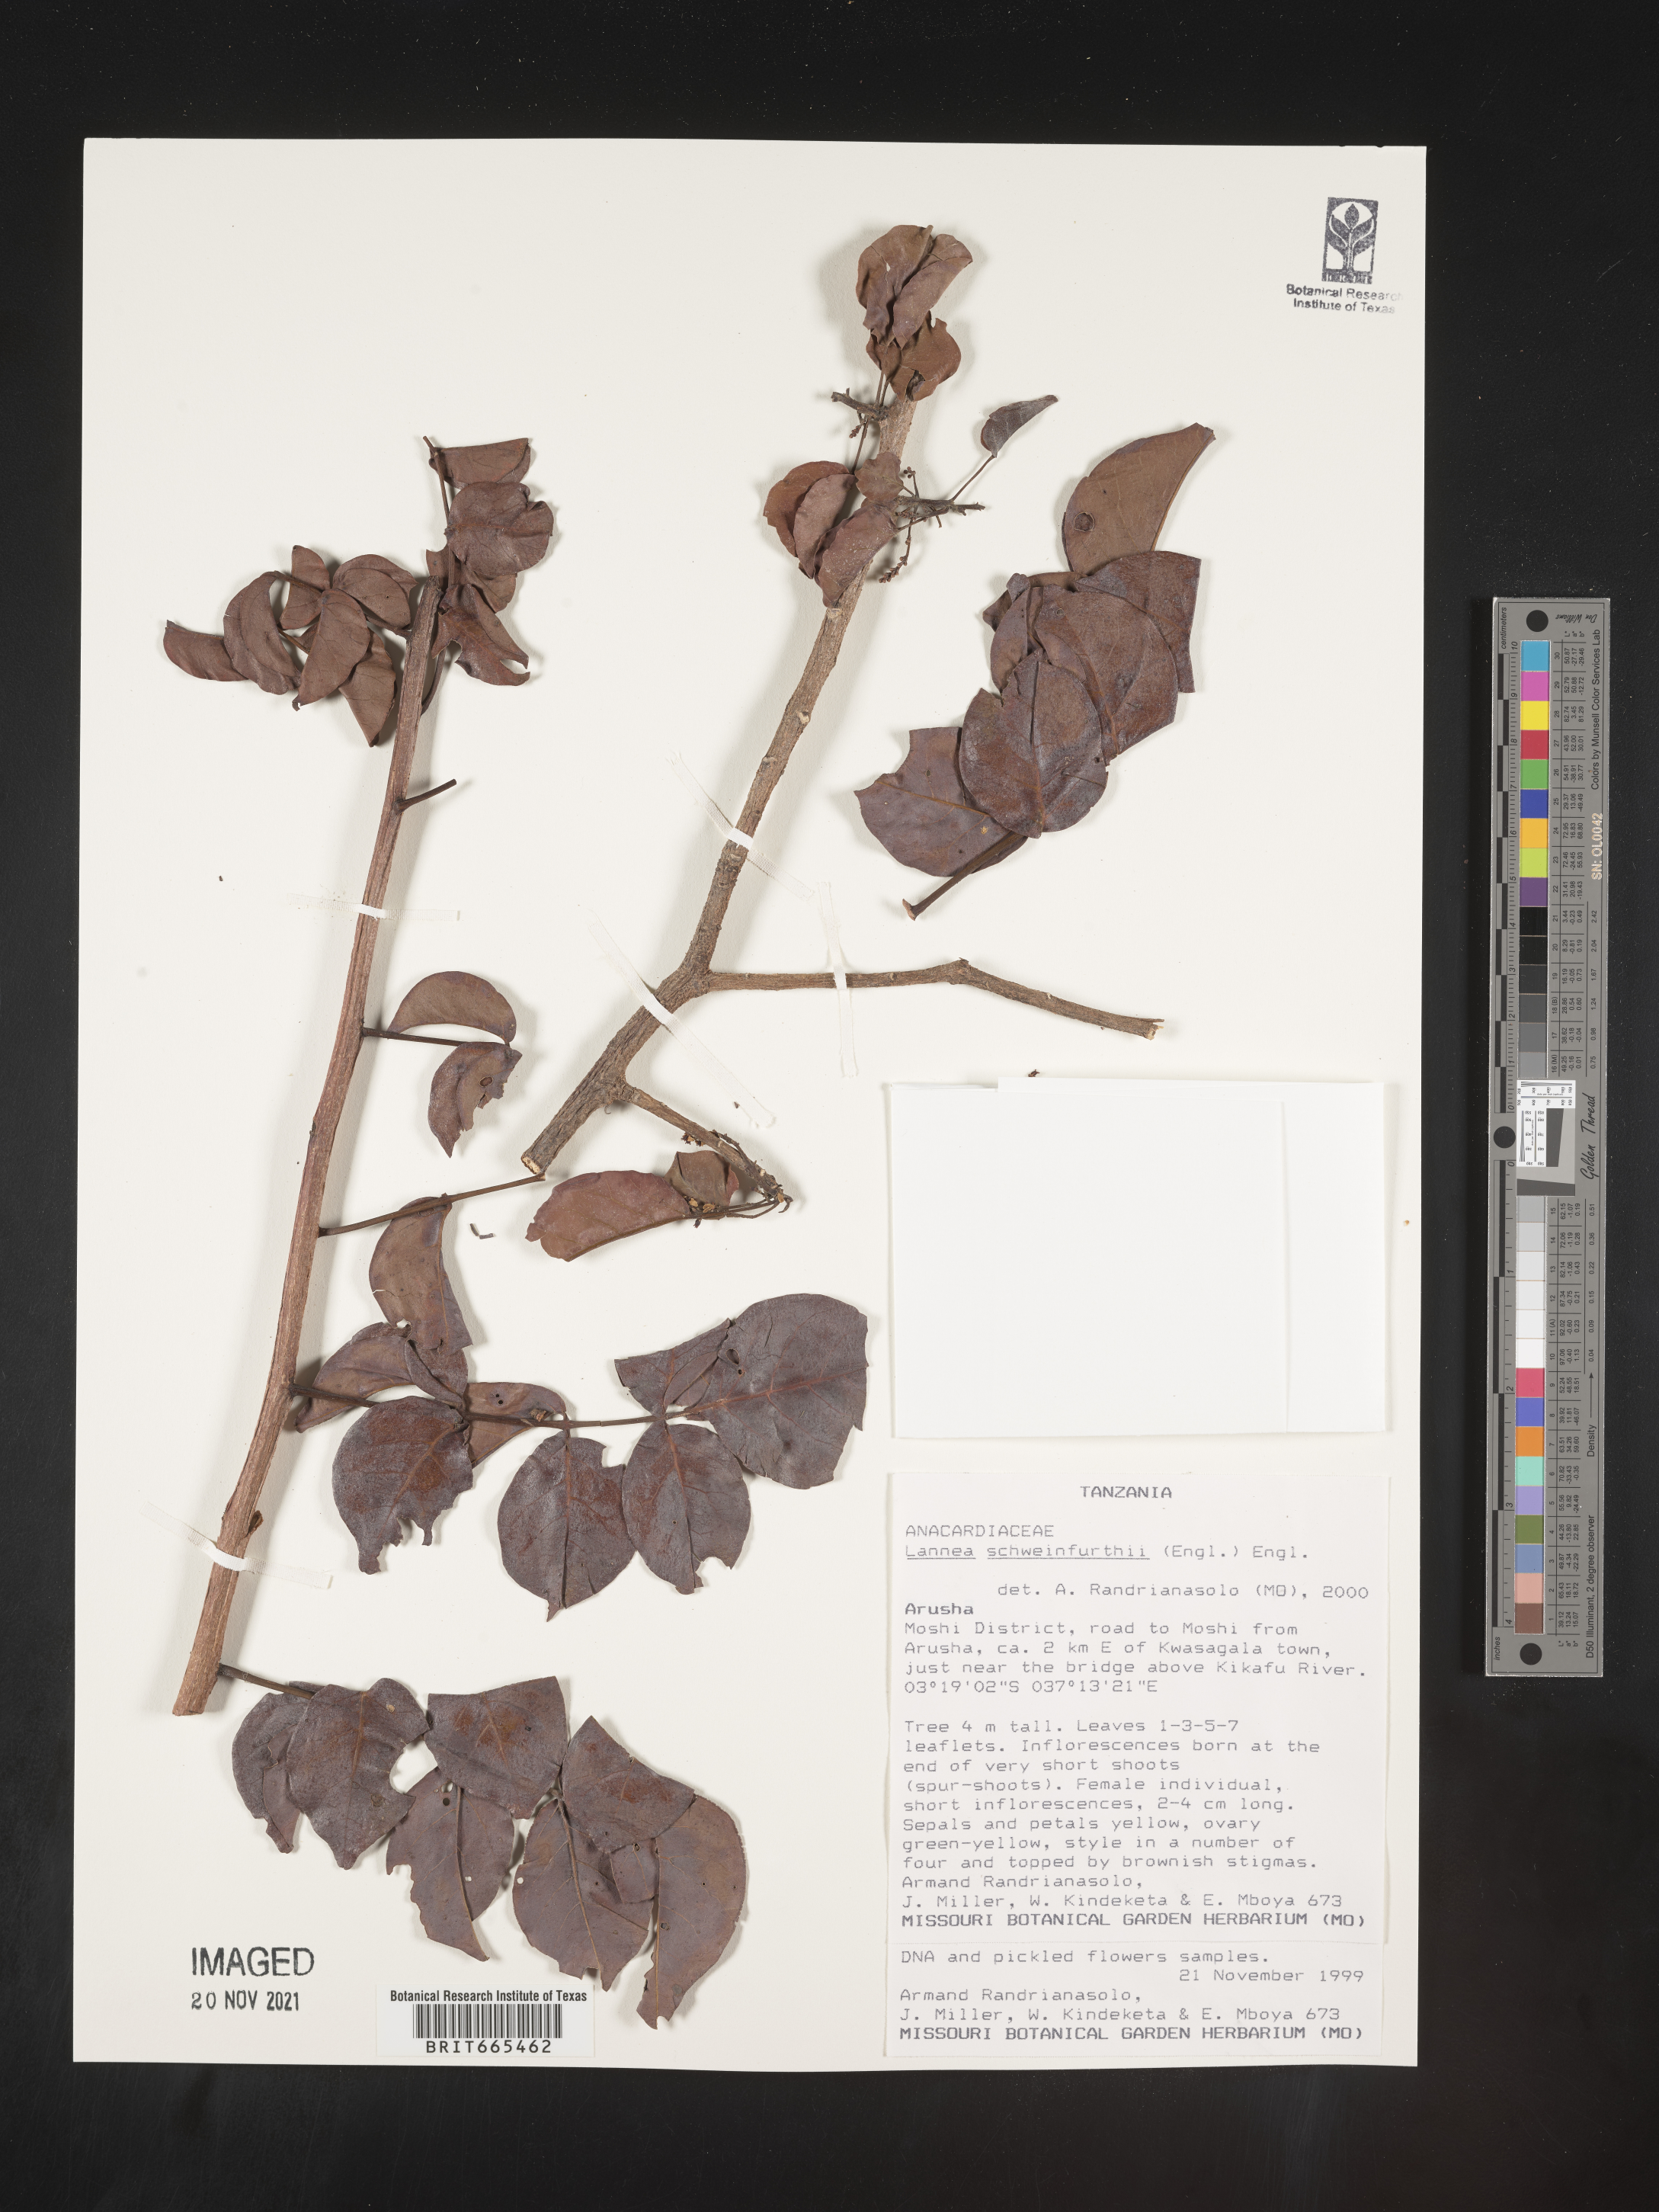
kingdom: Plantae
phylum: Tracheophyta
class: Magnoliopsida
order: Sapindales
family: Anacardiaceae
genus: Lannea
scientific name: Lannea
